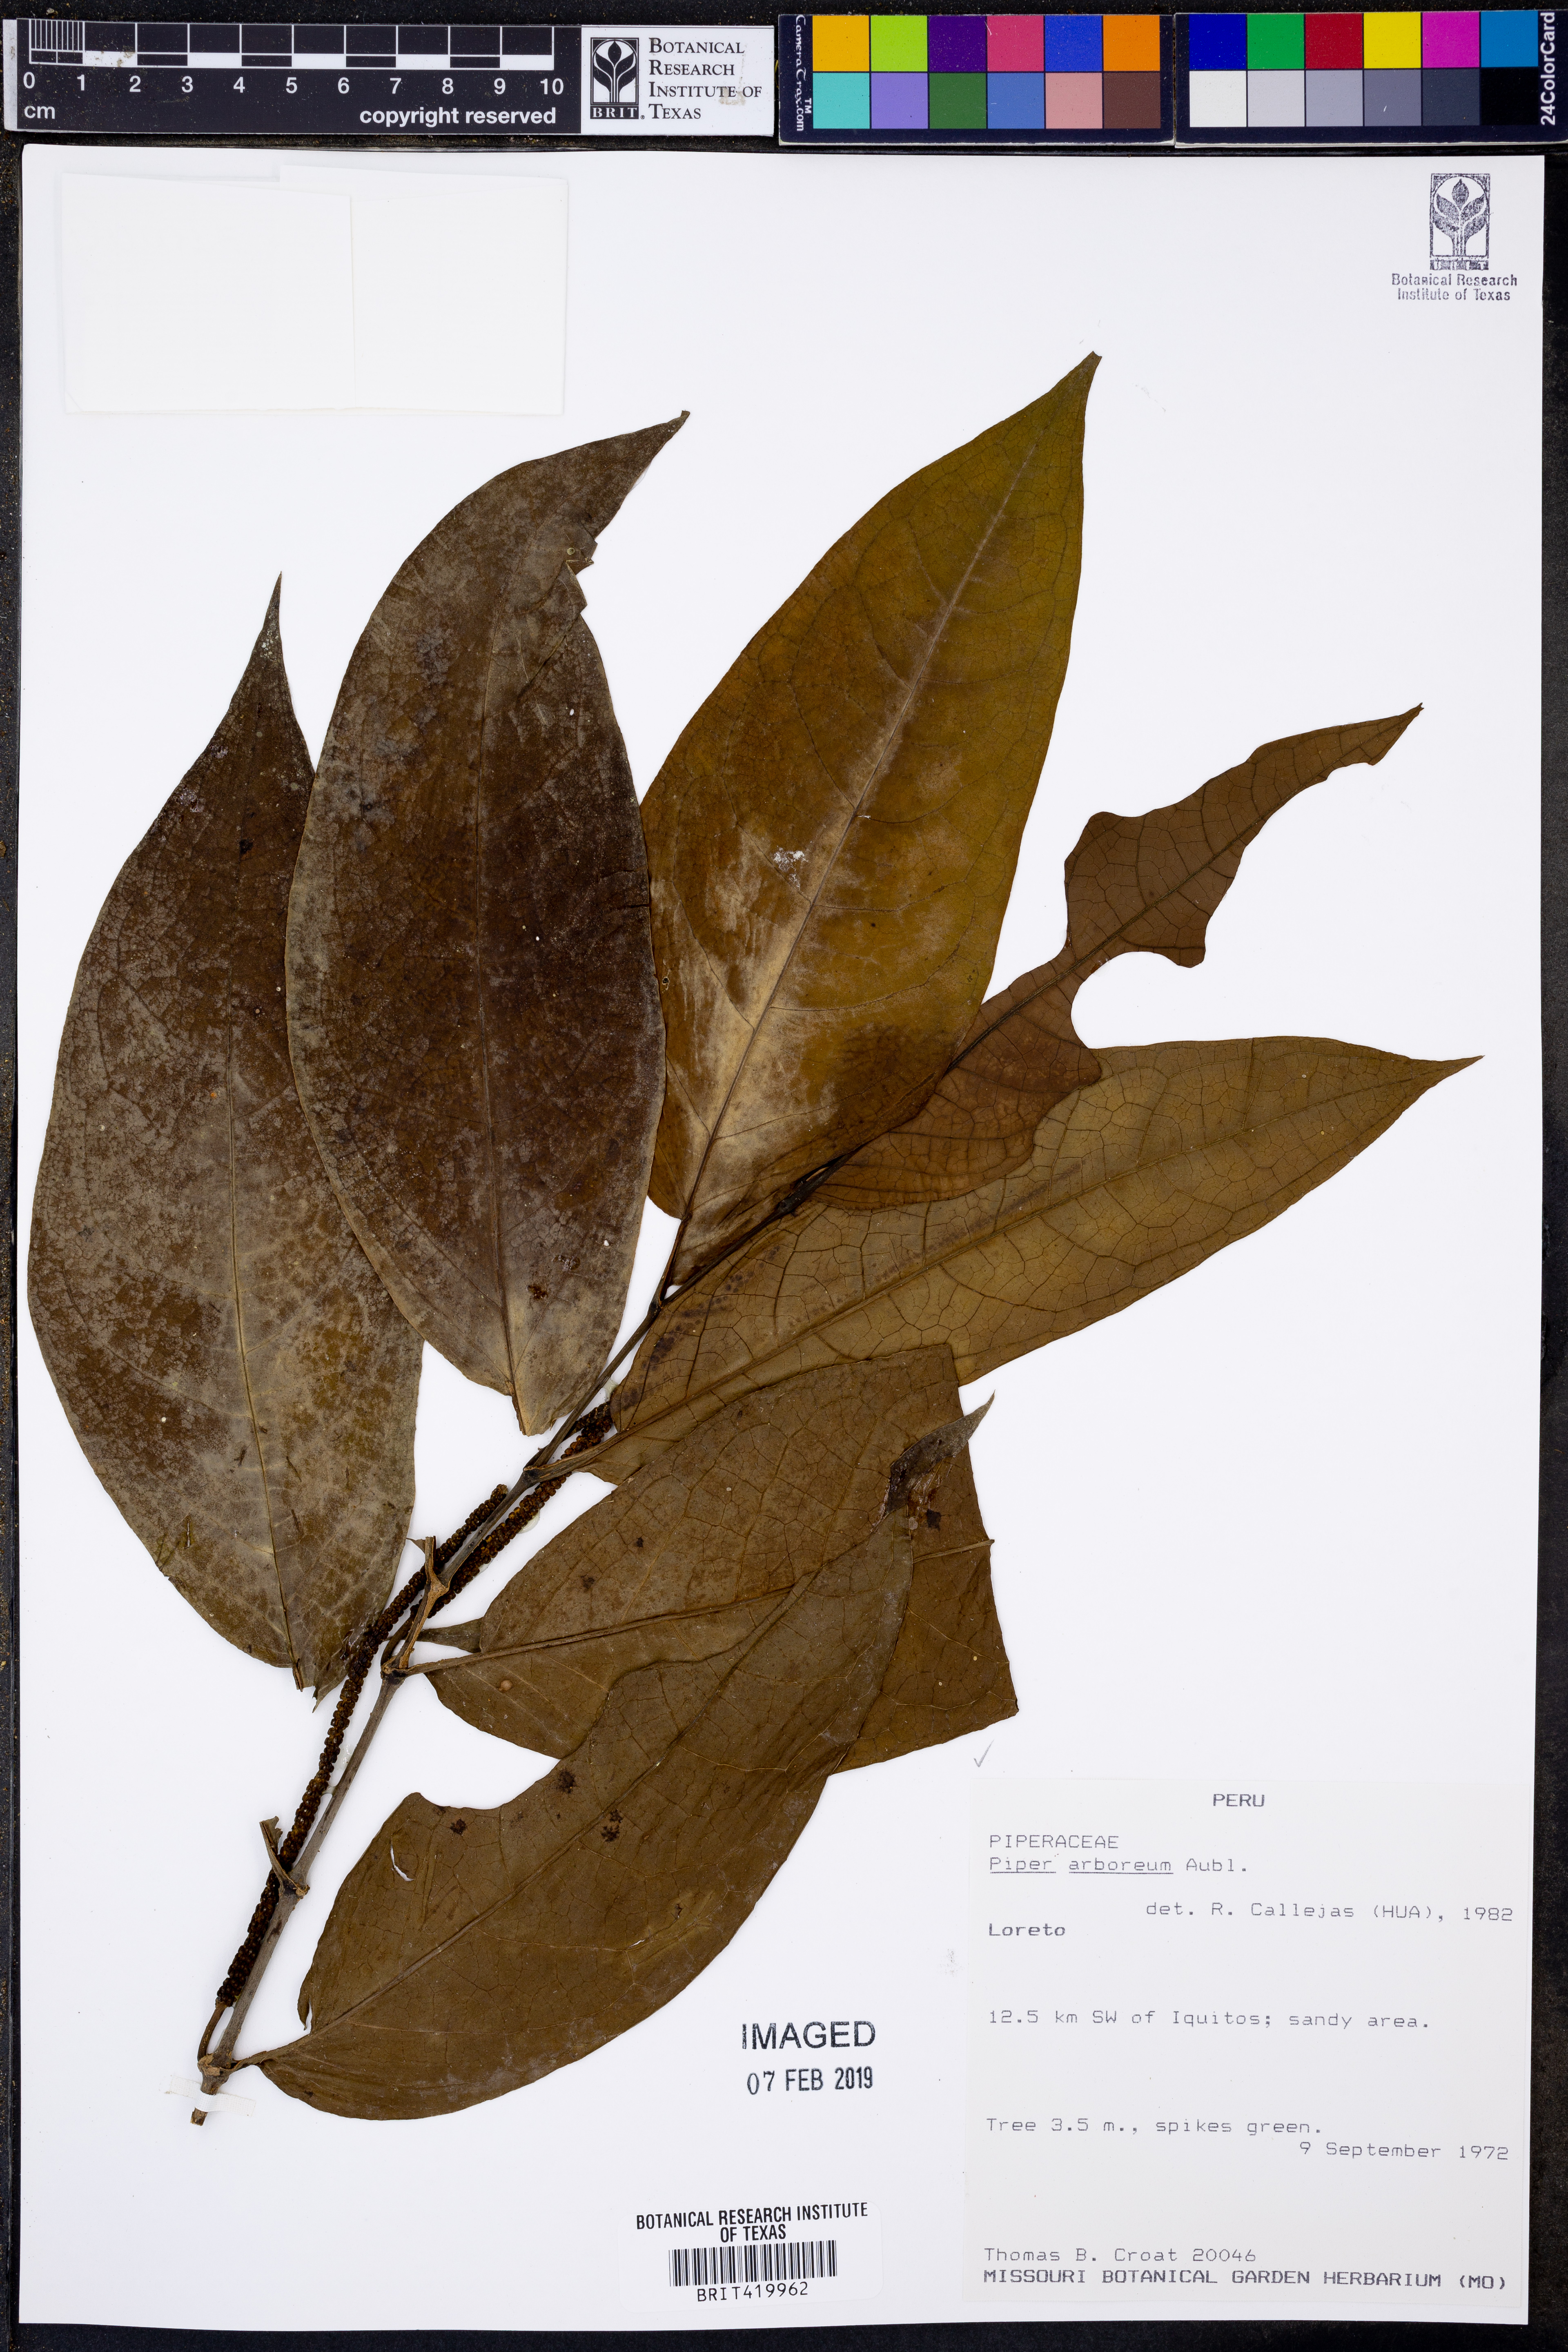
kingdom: Plantae
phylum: Tracheophyta
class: Magnoliopsida
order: Piperales
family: Piperaceae
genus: Piper
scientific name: Piper arboreum
